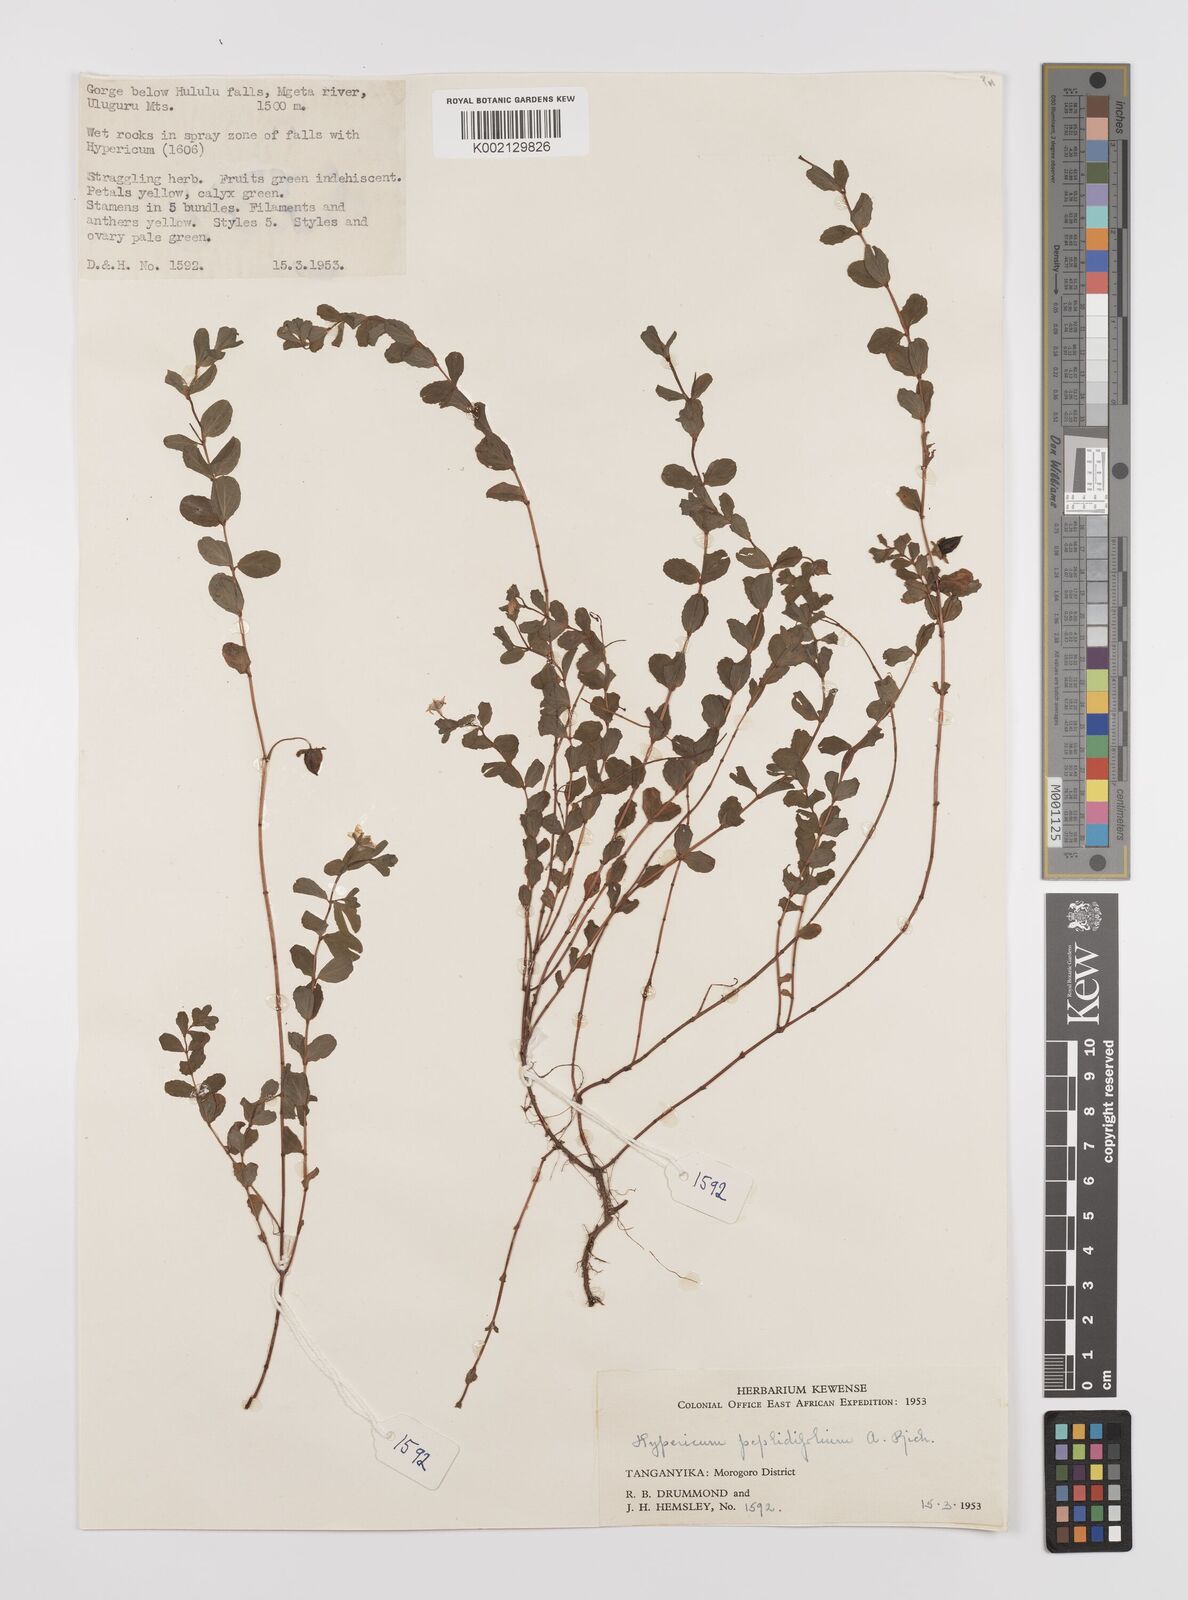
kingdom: Plantae
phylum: Tracheophyta
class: Magnoliopsida
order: Malpighiales
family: Hypericaceae
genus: Hypericum
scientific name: Hypericum peplidifolium
